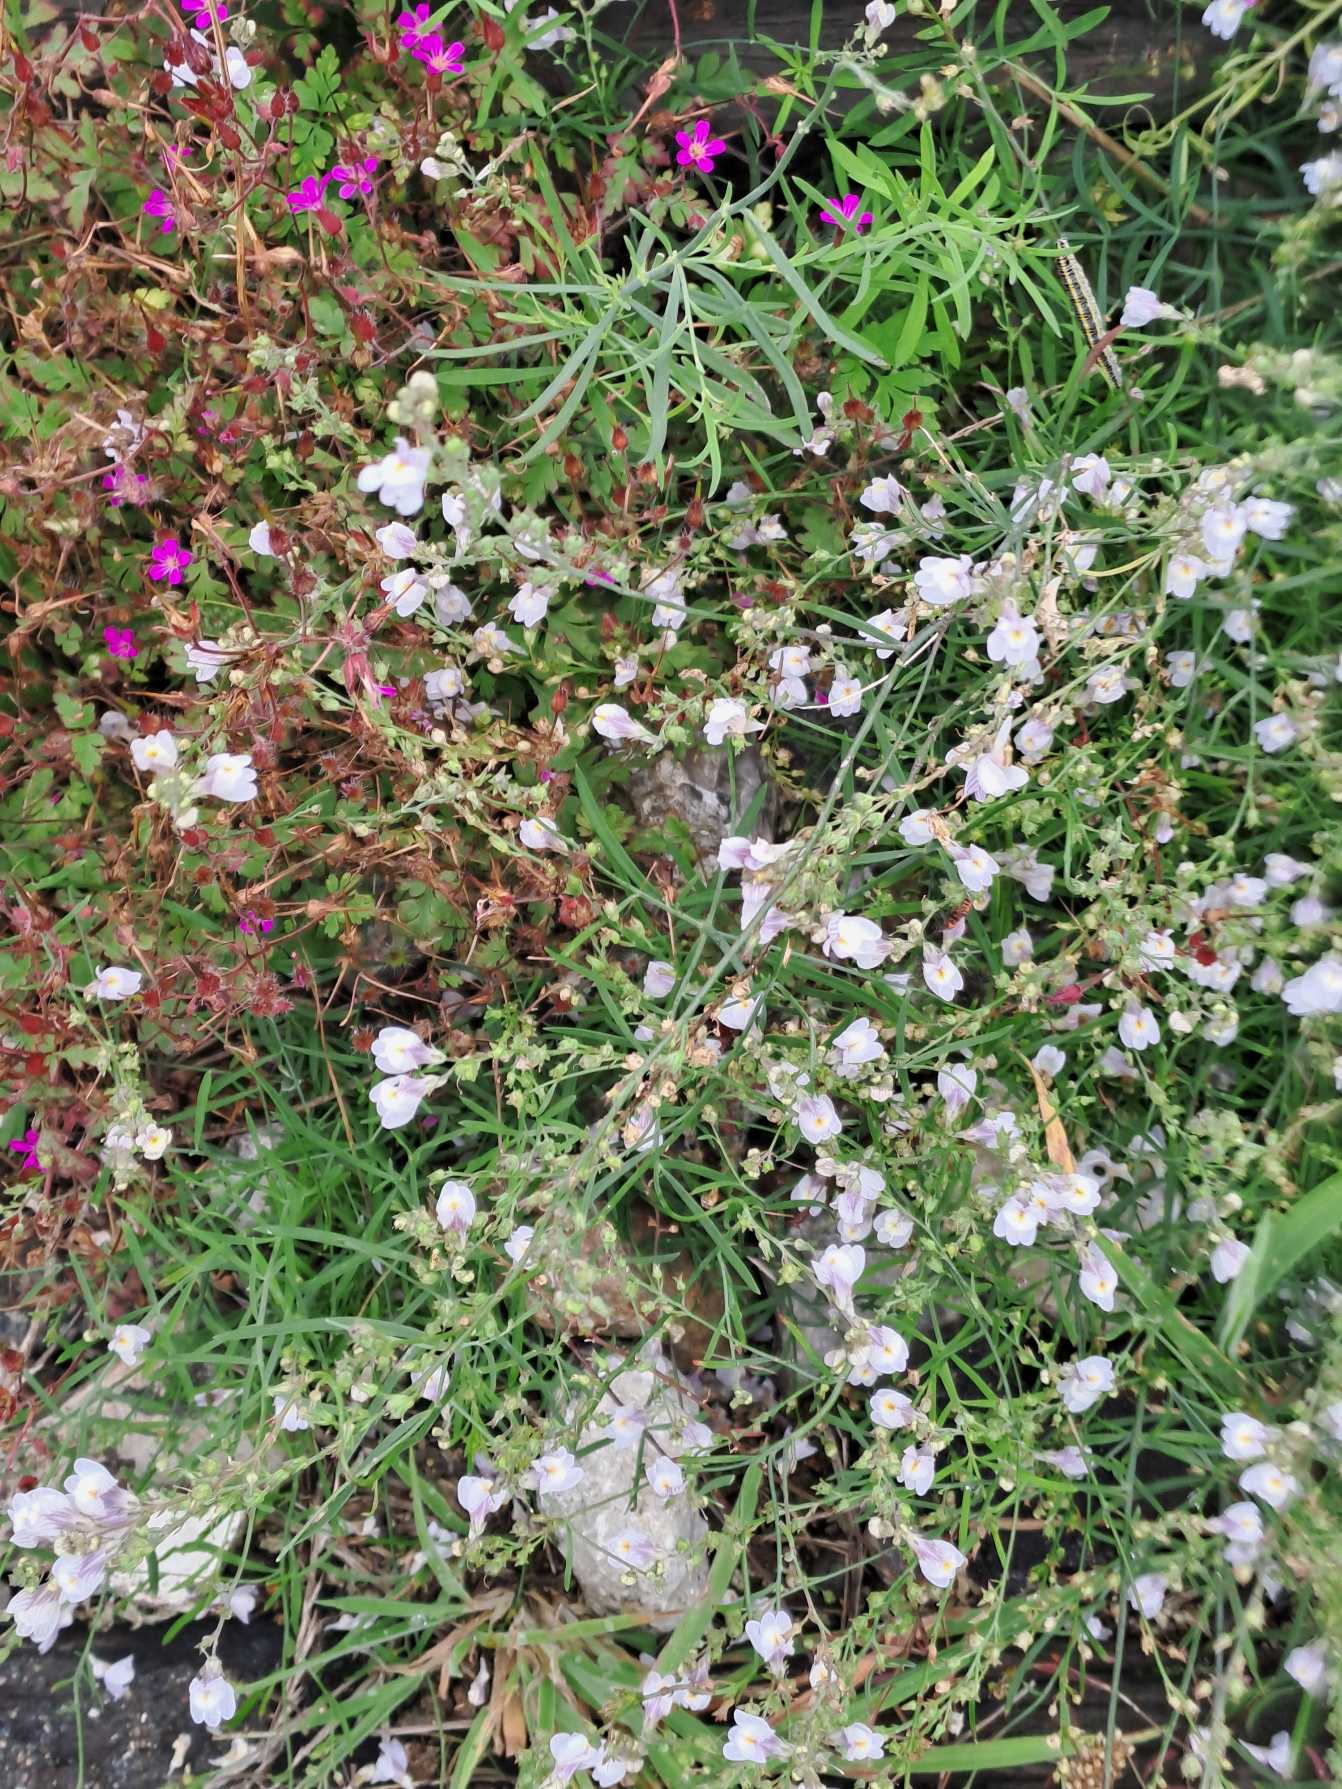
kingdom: Plantae
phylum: Tracheophyta
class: Magnoliopsida
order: Lamiales
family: Plantaginaceae
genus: Linaria
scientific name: Linaria repens
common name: Stribet torskemund
